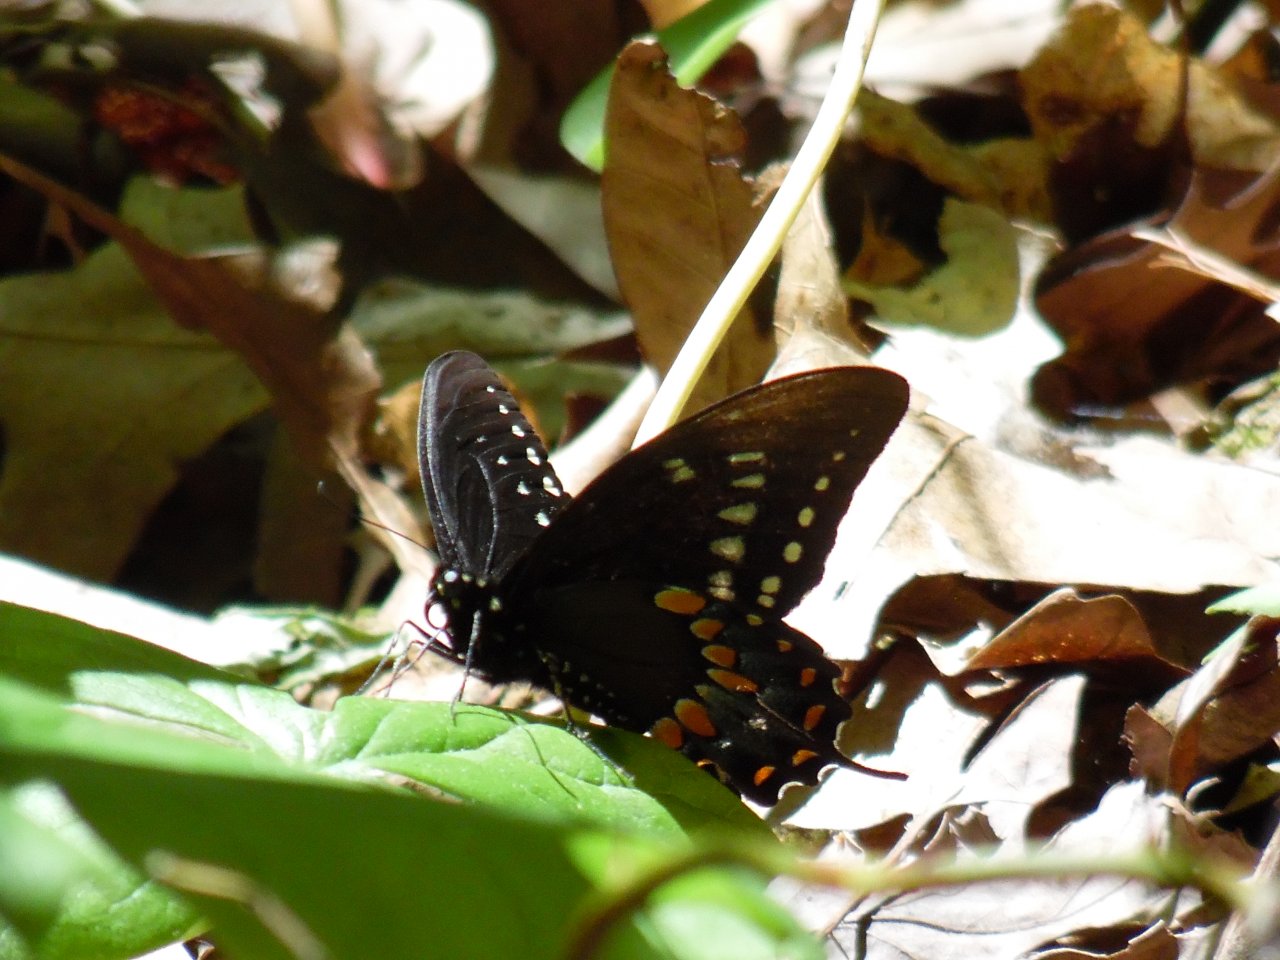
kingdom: Animalia
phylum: Arthropoda
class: Insecta
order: Lepidoptera
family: Papilionidae
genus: Pterourus
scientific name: Pterourus troilus
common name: Spicebush Swallowtail
